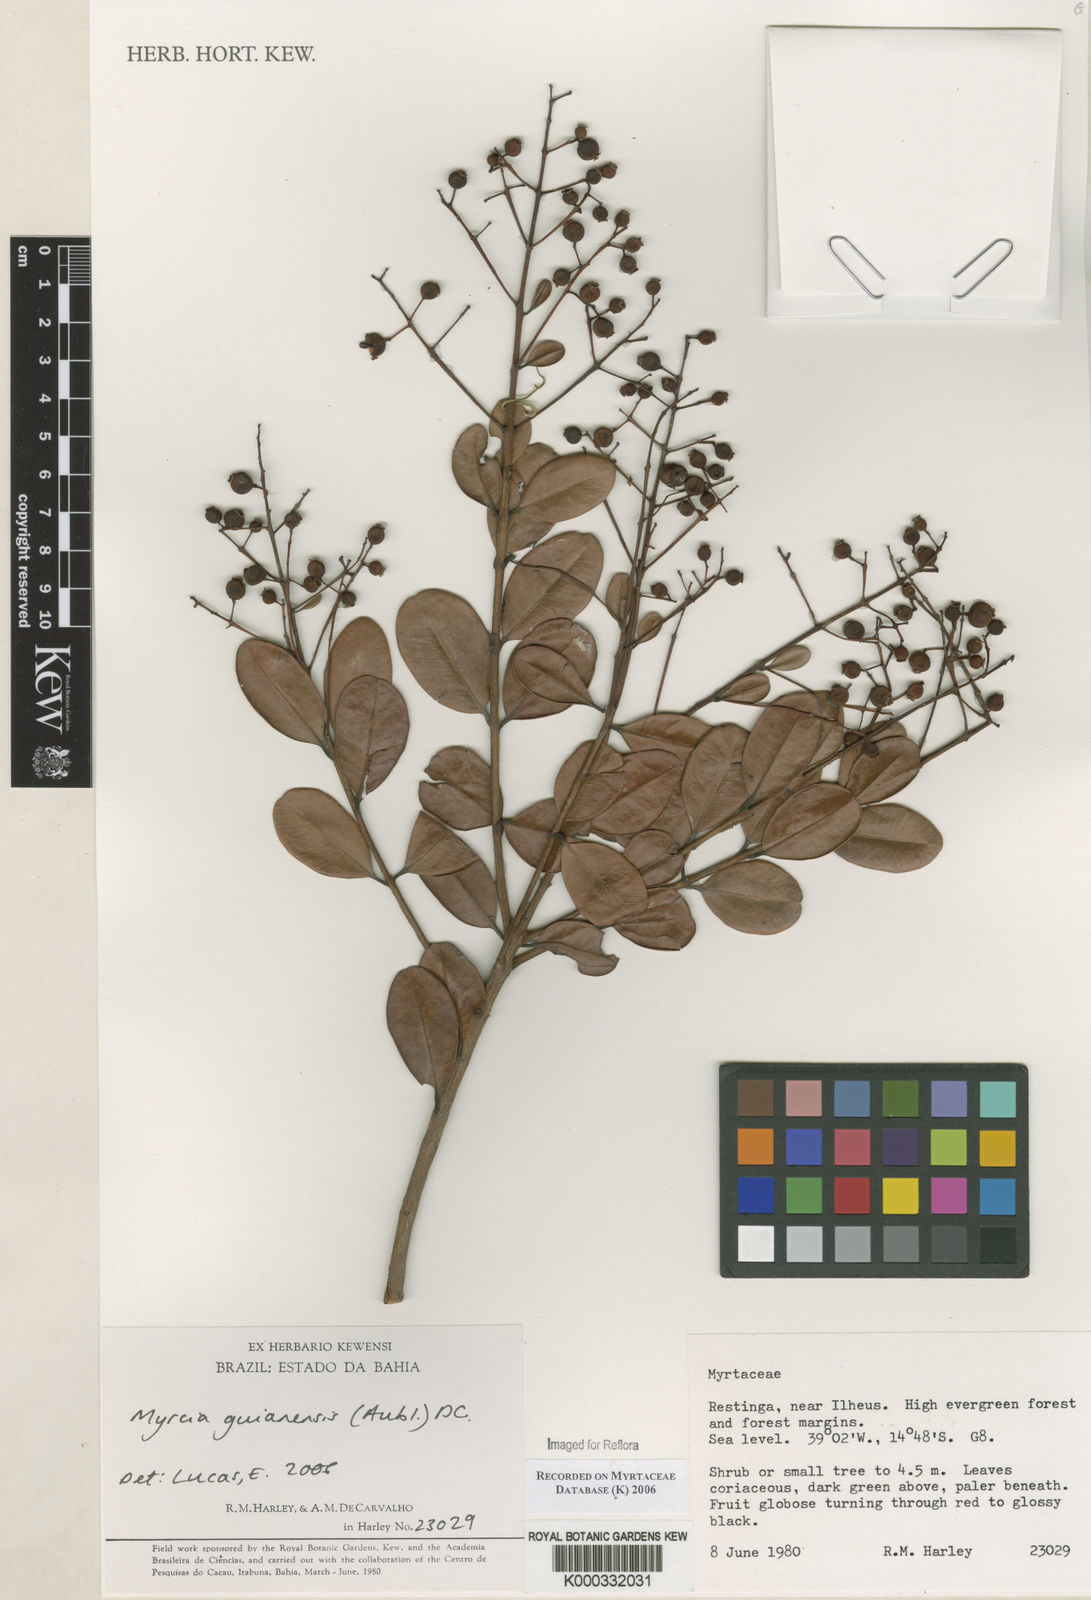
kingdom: Plantae
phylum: Tracheophyta
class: Magnoliopsida
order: Myrtales
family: Myrtaceae
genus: Myrcia
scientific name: Myrcia guianensis
